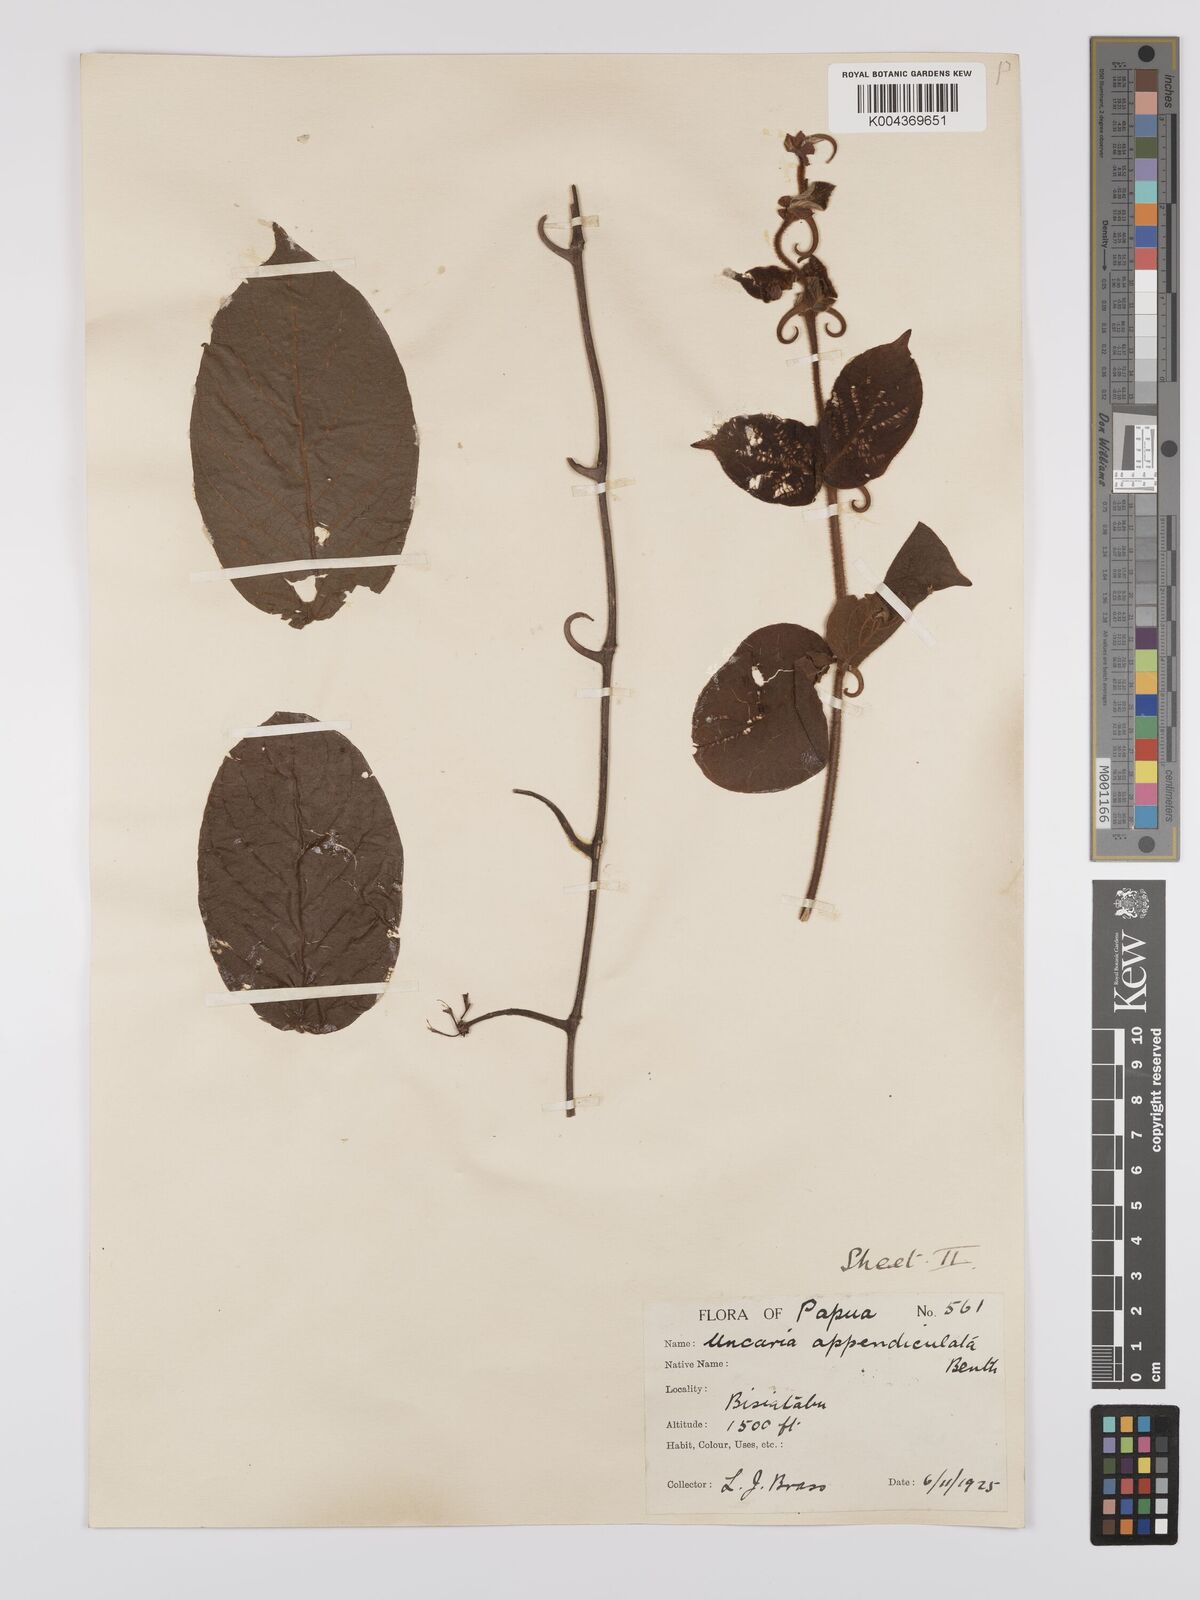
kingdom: Plantae
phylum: Tracheophyta
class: Magnoliopsida
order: Gentianales
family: Rubiaceae
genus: Uncaria
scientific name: Uncaria lanosa
